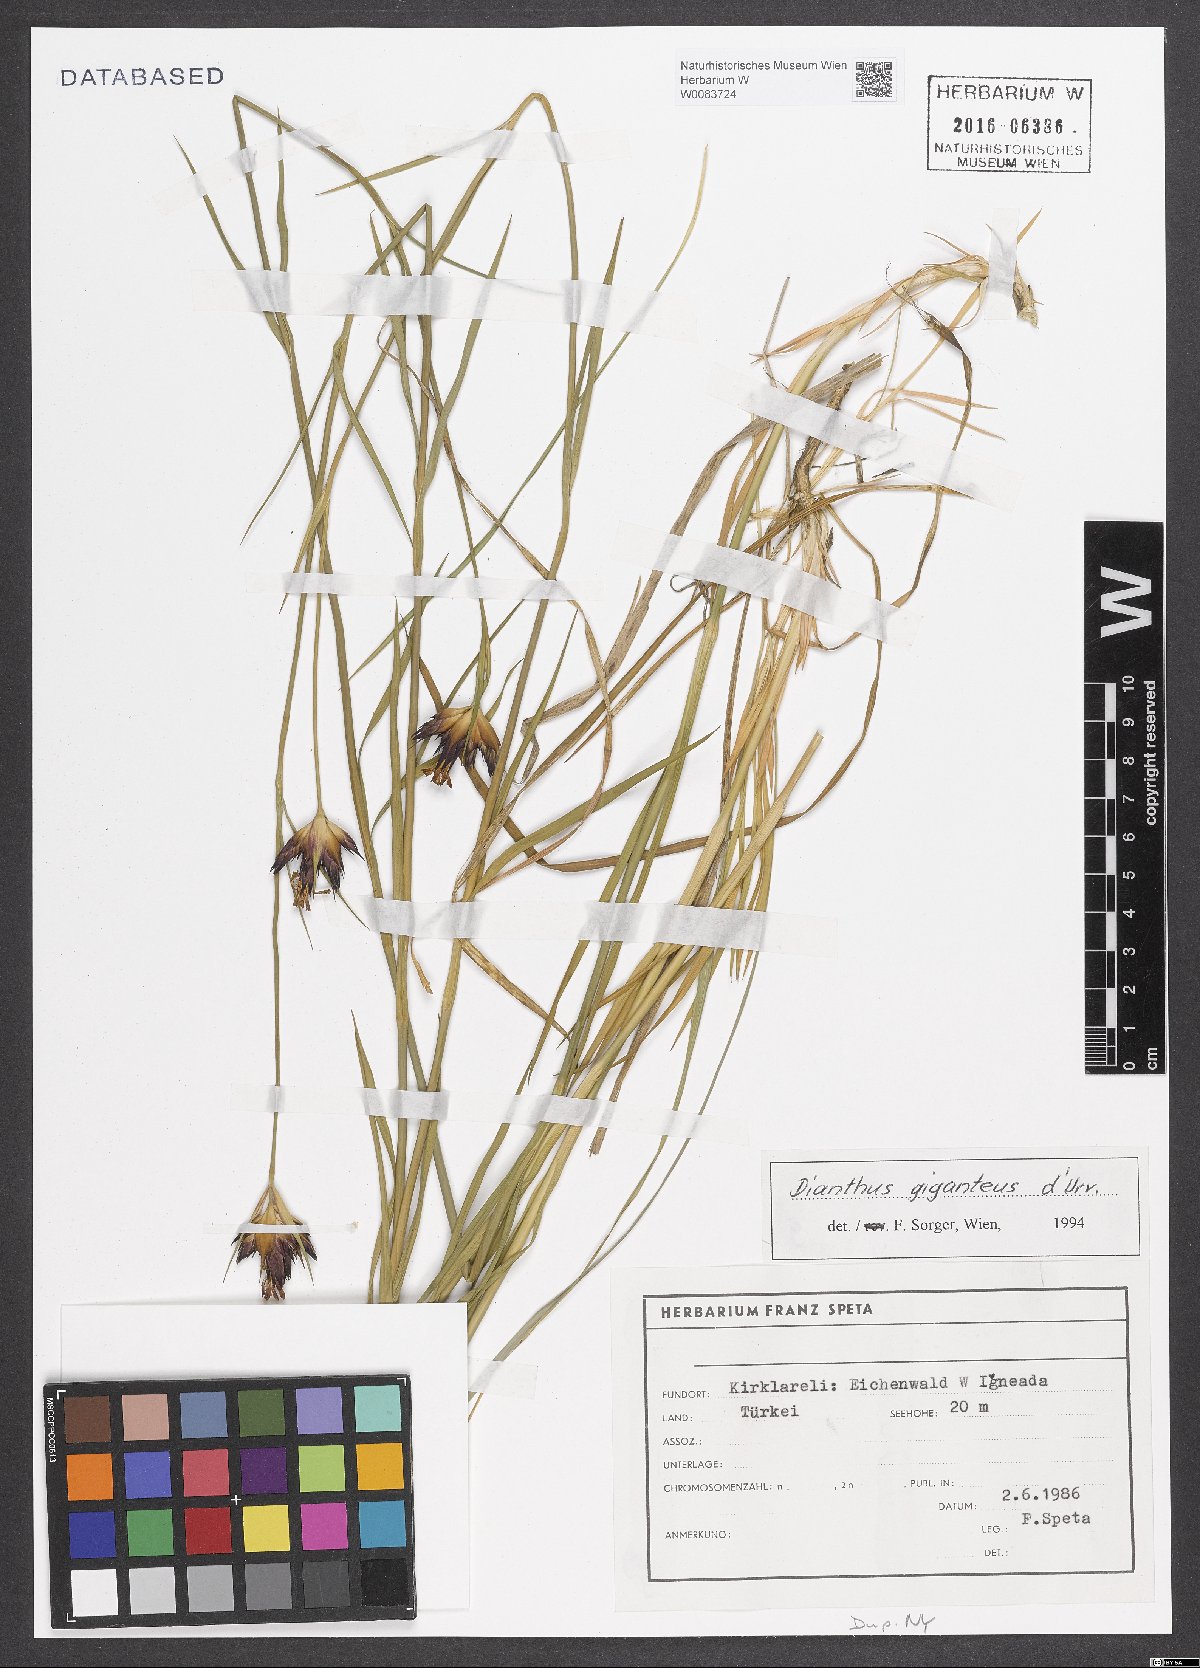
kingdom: Plantae
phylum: Tracheophyta
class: Magnoliopsida
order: Caryophyllales
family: Caryophyllaceae
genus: Dianthus
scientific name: Dianthus giganteus
